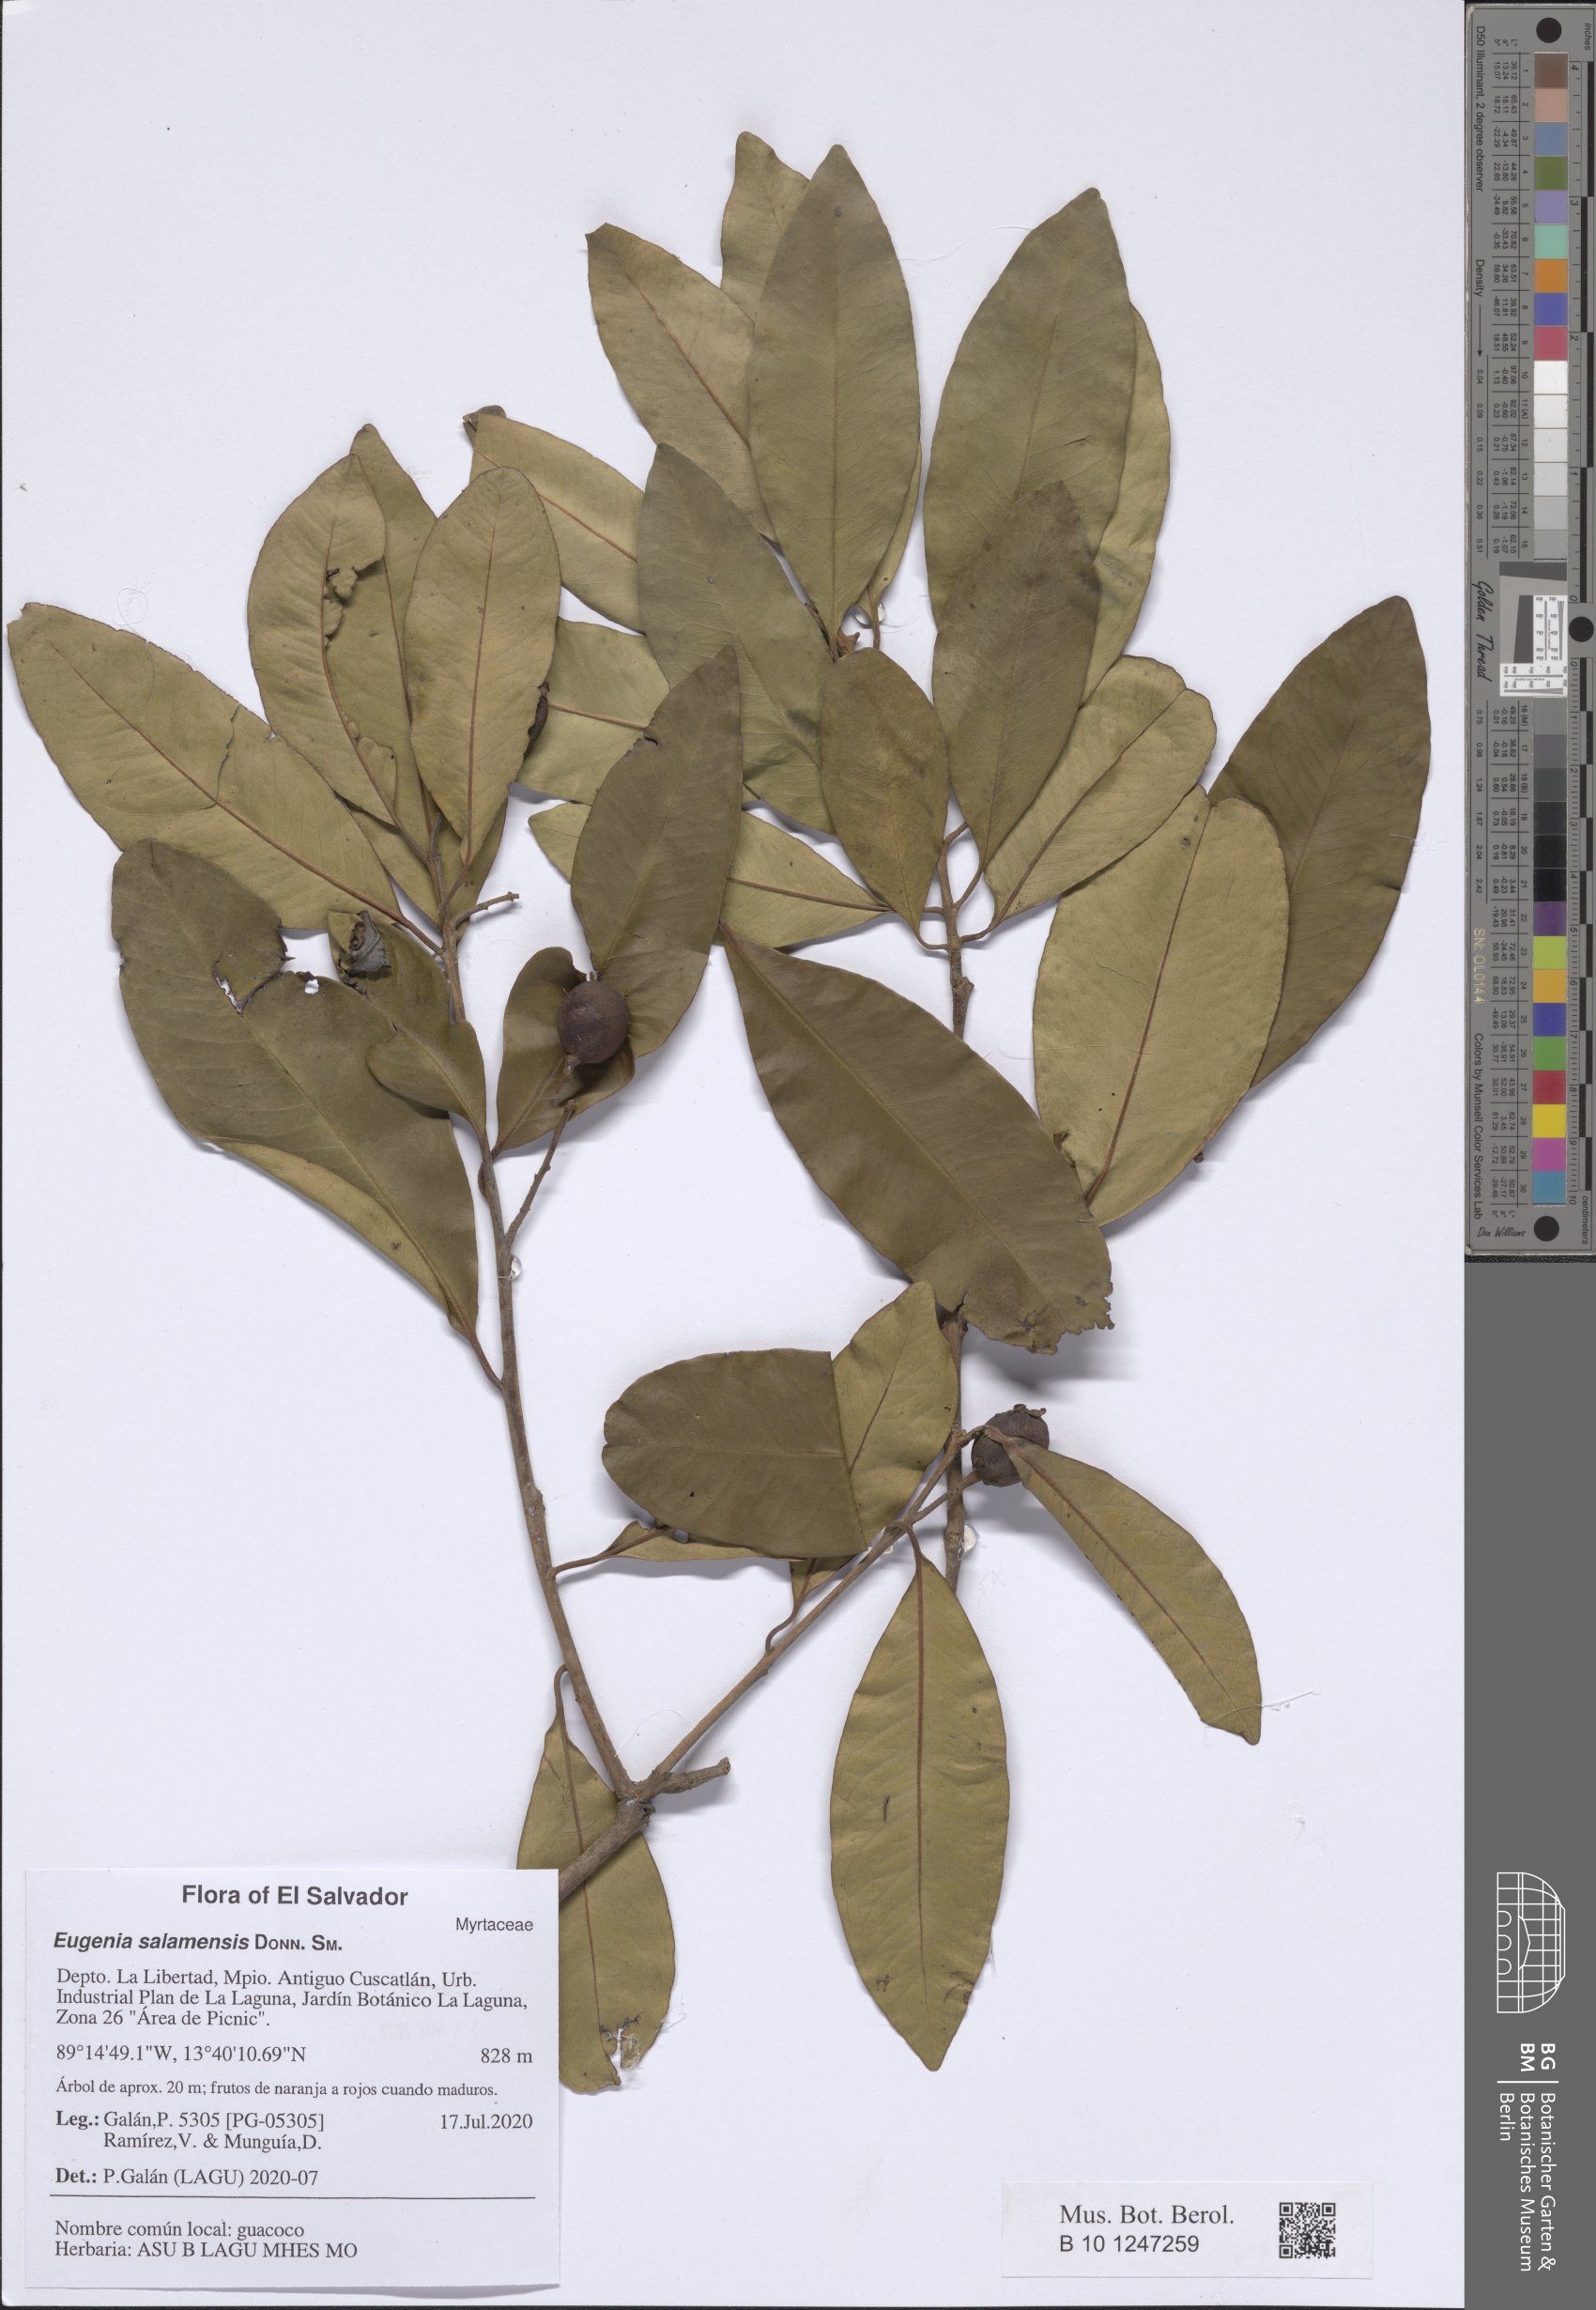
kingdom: Plantae
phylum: Tracheophyta
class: Magnoliopsida
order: Myrtales
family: Myrtaceae
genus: Eugenia
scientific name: Eugenia oerstediana
